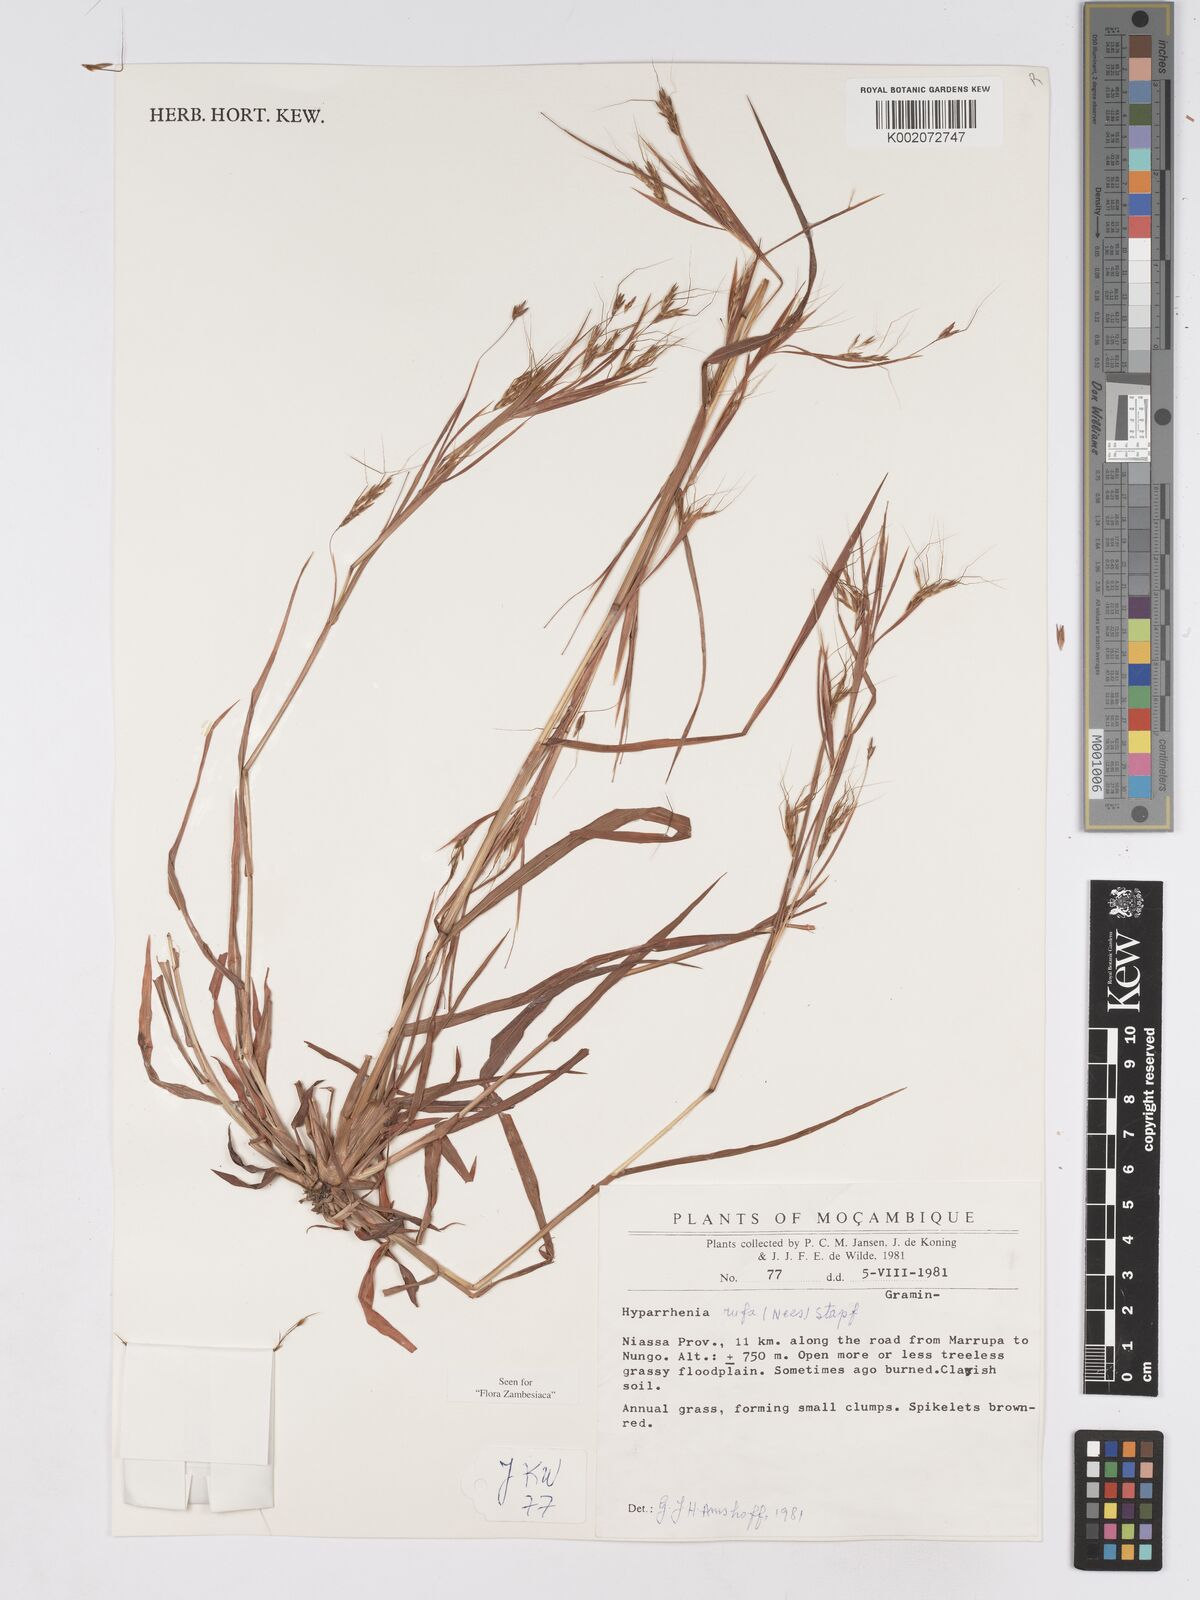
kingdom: Plantae
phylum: Tracheophyta
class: Liliopsida
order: Poales
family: Poaceae
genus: Hyparrhenia
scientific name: Hyparrhenia rufa
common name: Jaraguagrass
